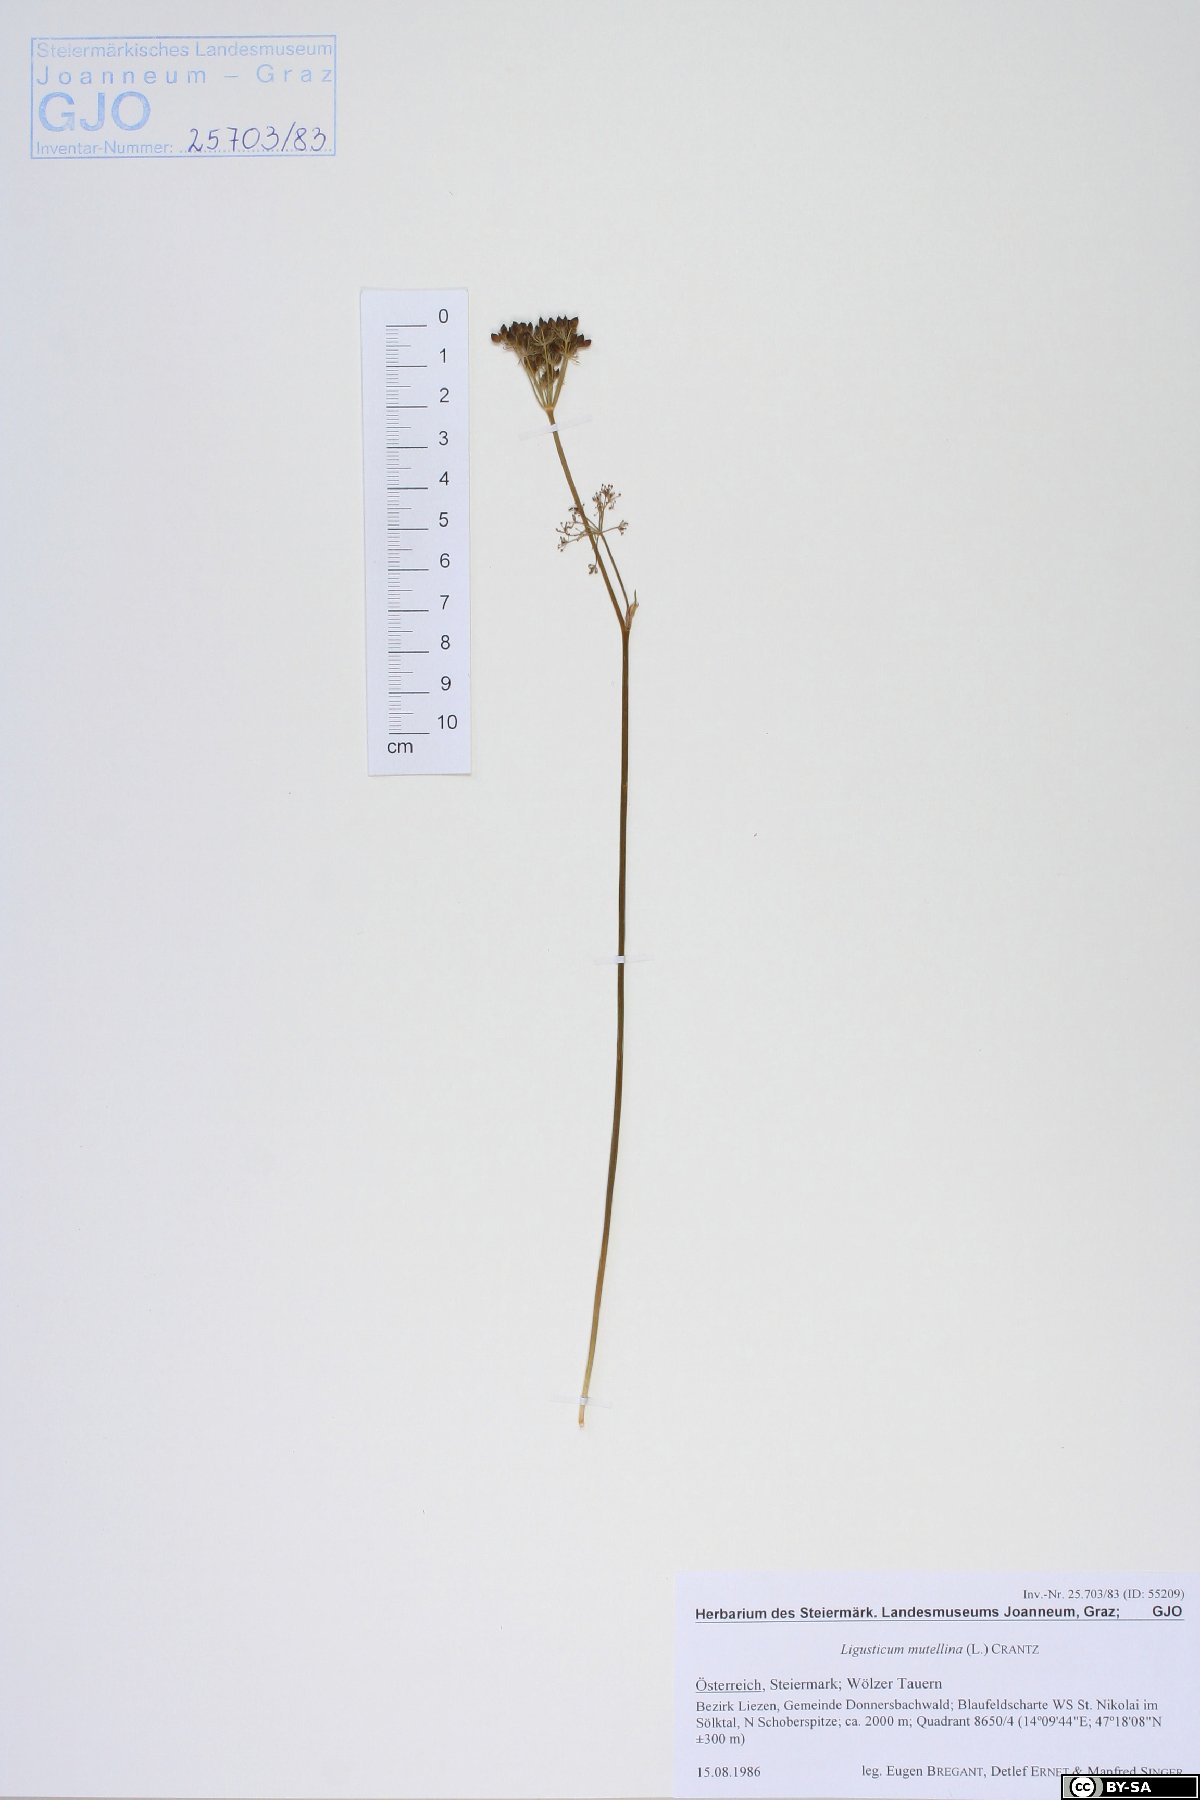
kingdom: Plantae
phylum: Tracheophyta
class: Magnoliopsida
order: Apiales
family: Apiaceae
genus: Mutellina
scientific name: Mutellina adonidifolia
